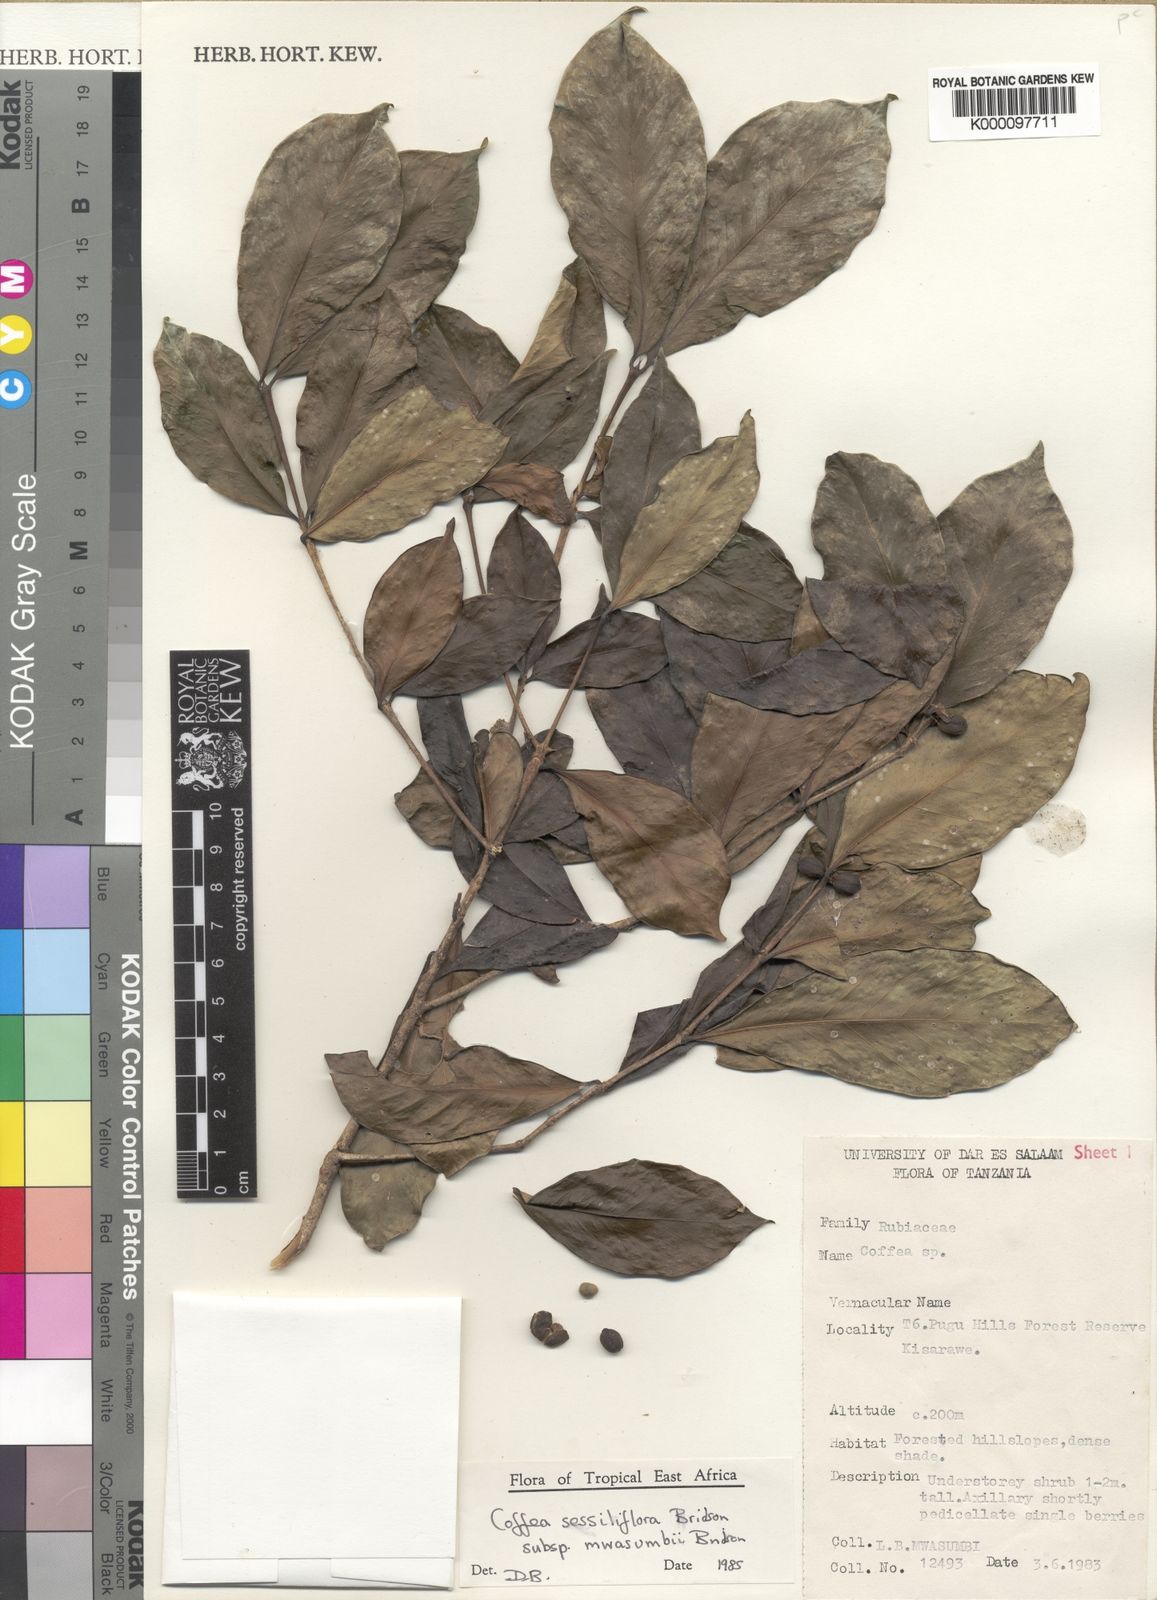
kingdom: Plantae
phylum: Tracheophyta
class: Magnoliopsida
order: Gentianales
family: Rubiaceae
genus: Coffea
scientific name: Coffea sessiliflora
